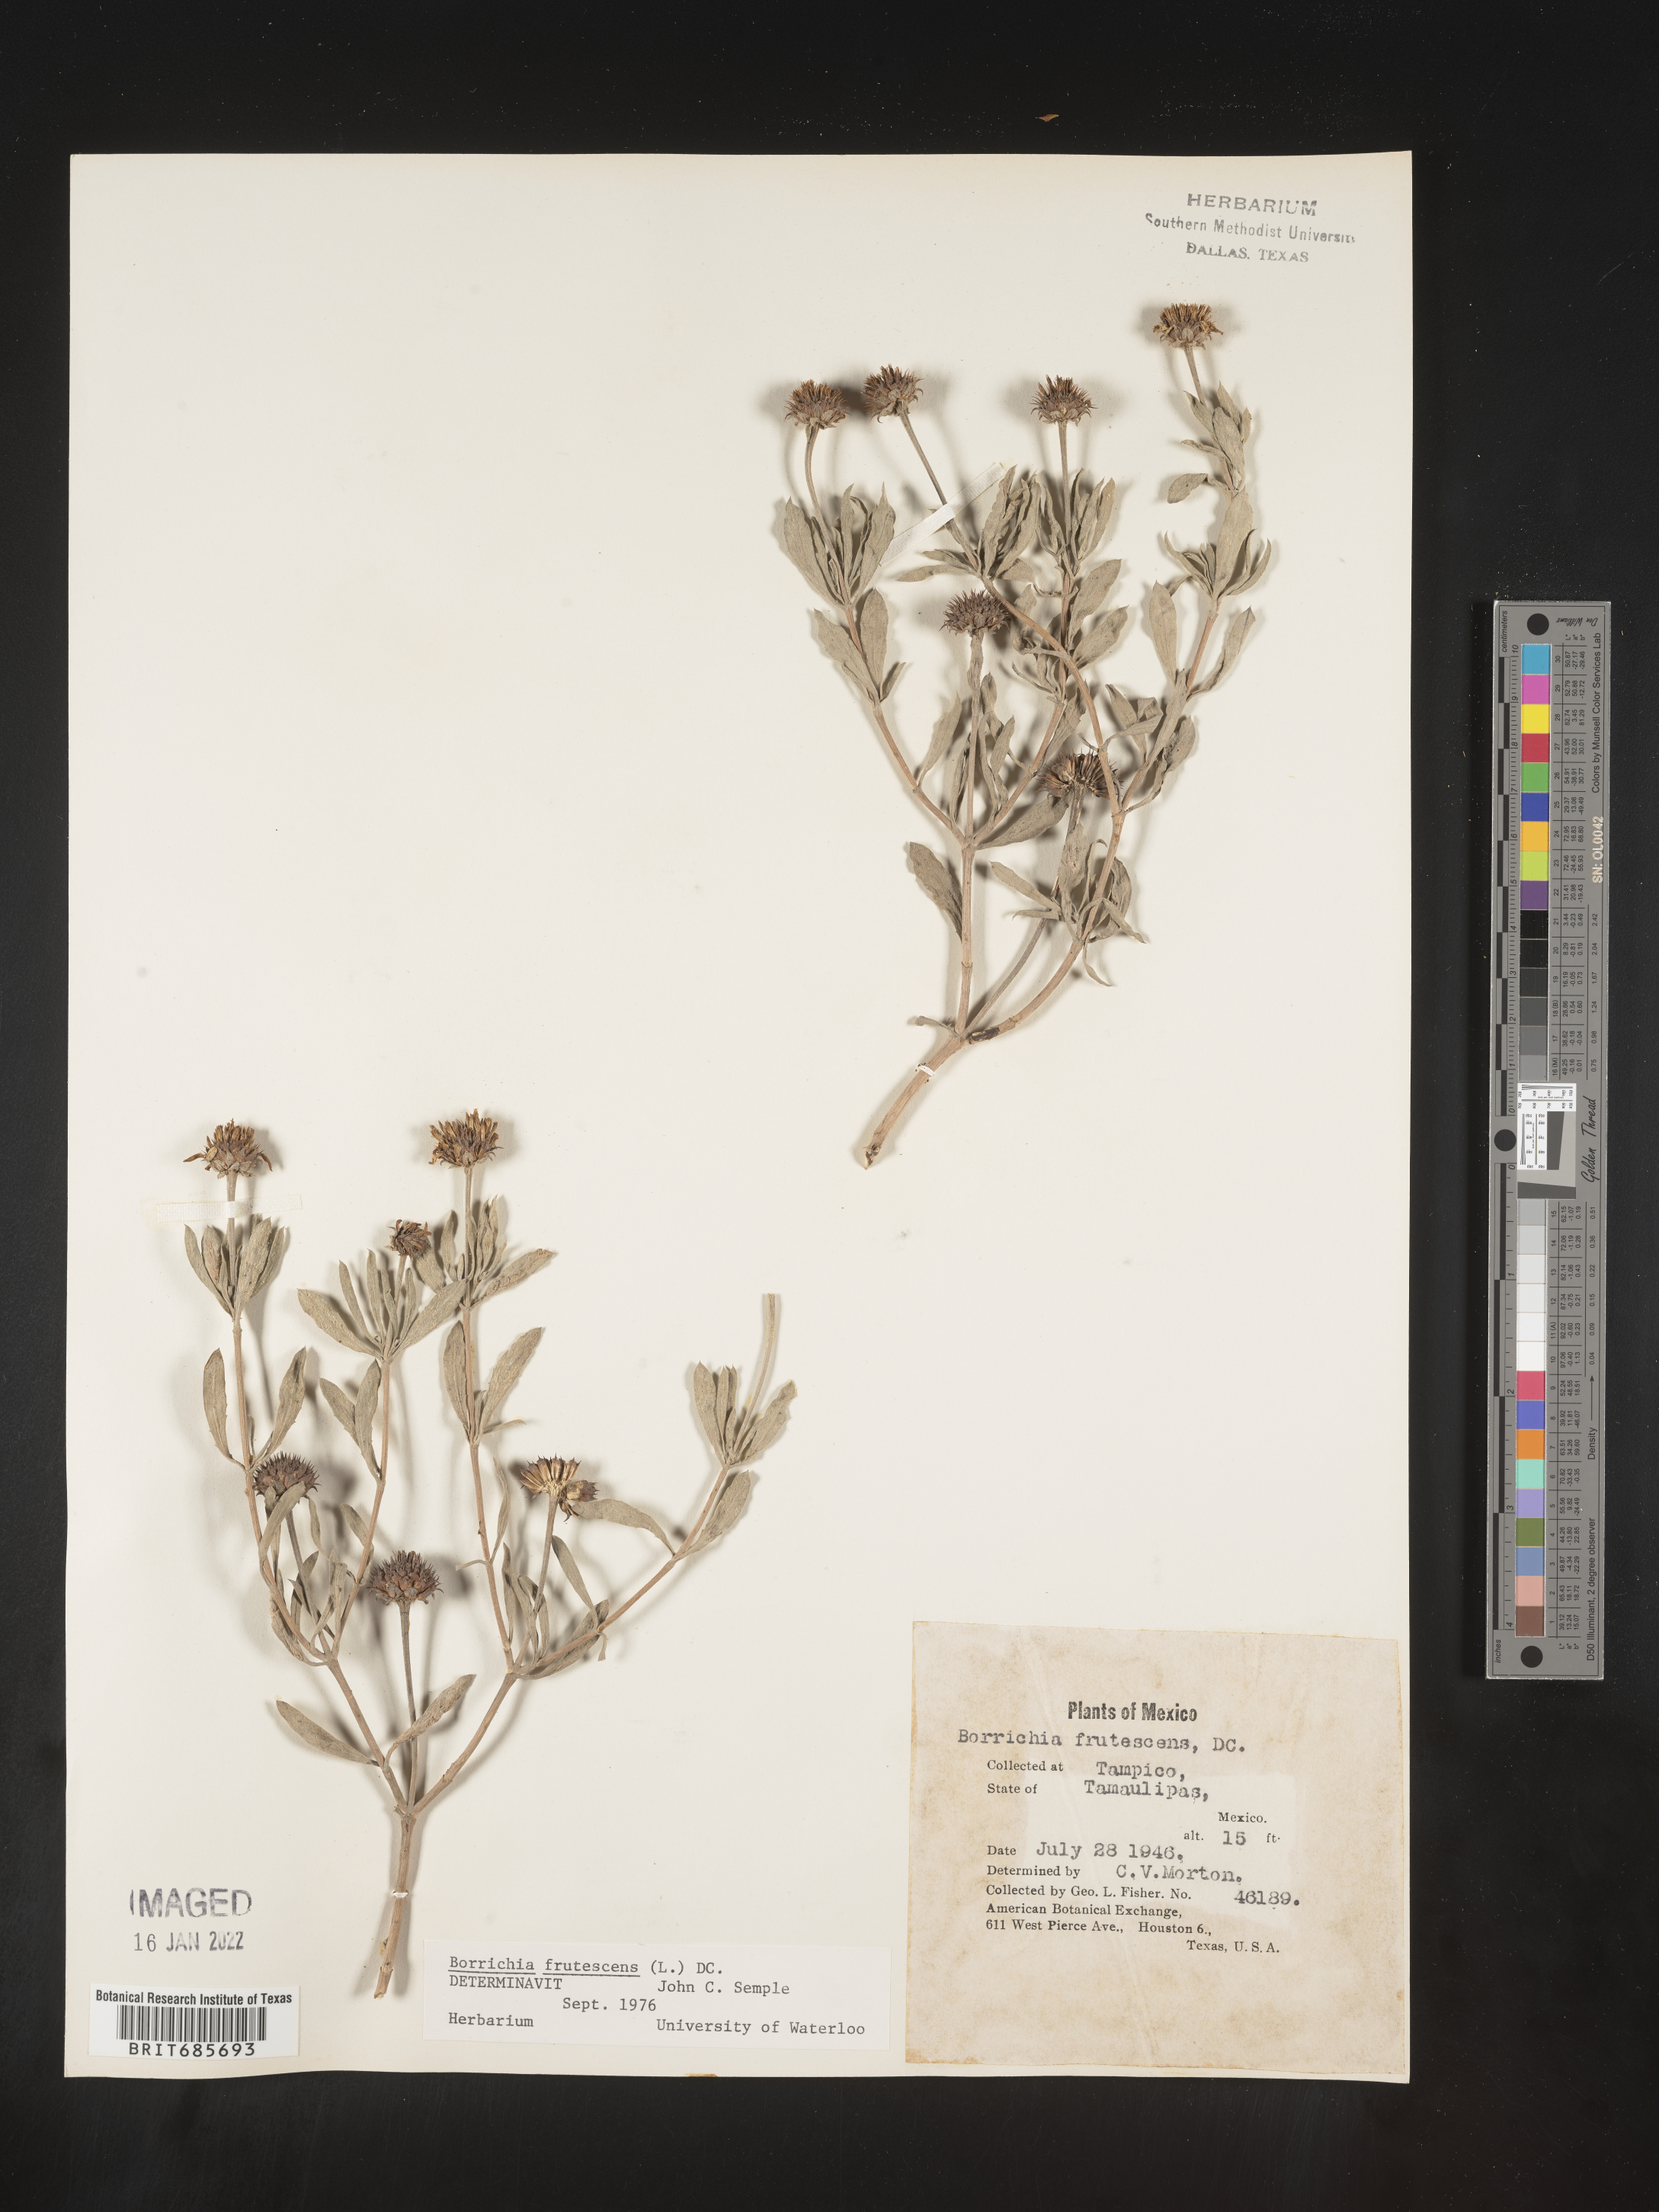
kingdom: Plantae
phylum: Tracheophyta
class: Magnoliopsida
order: Asterales
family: Asteraceae
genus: Borrichia
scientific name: Borrichia
